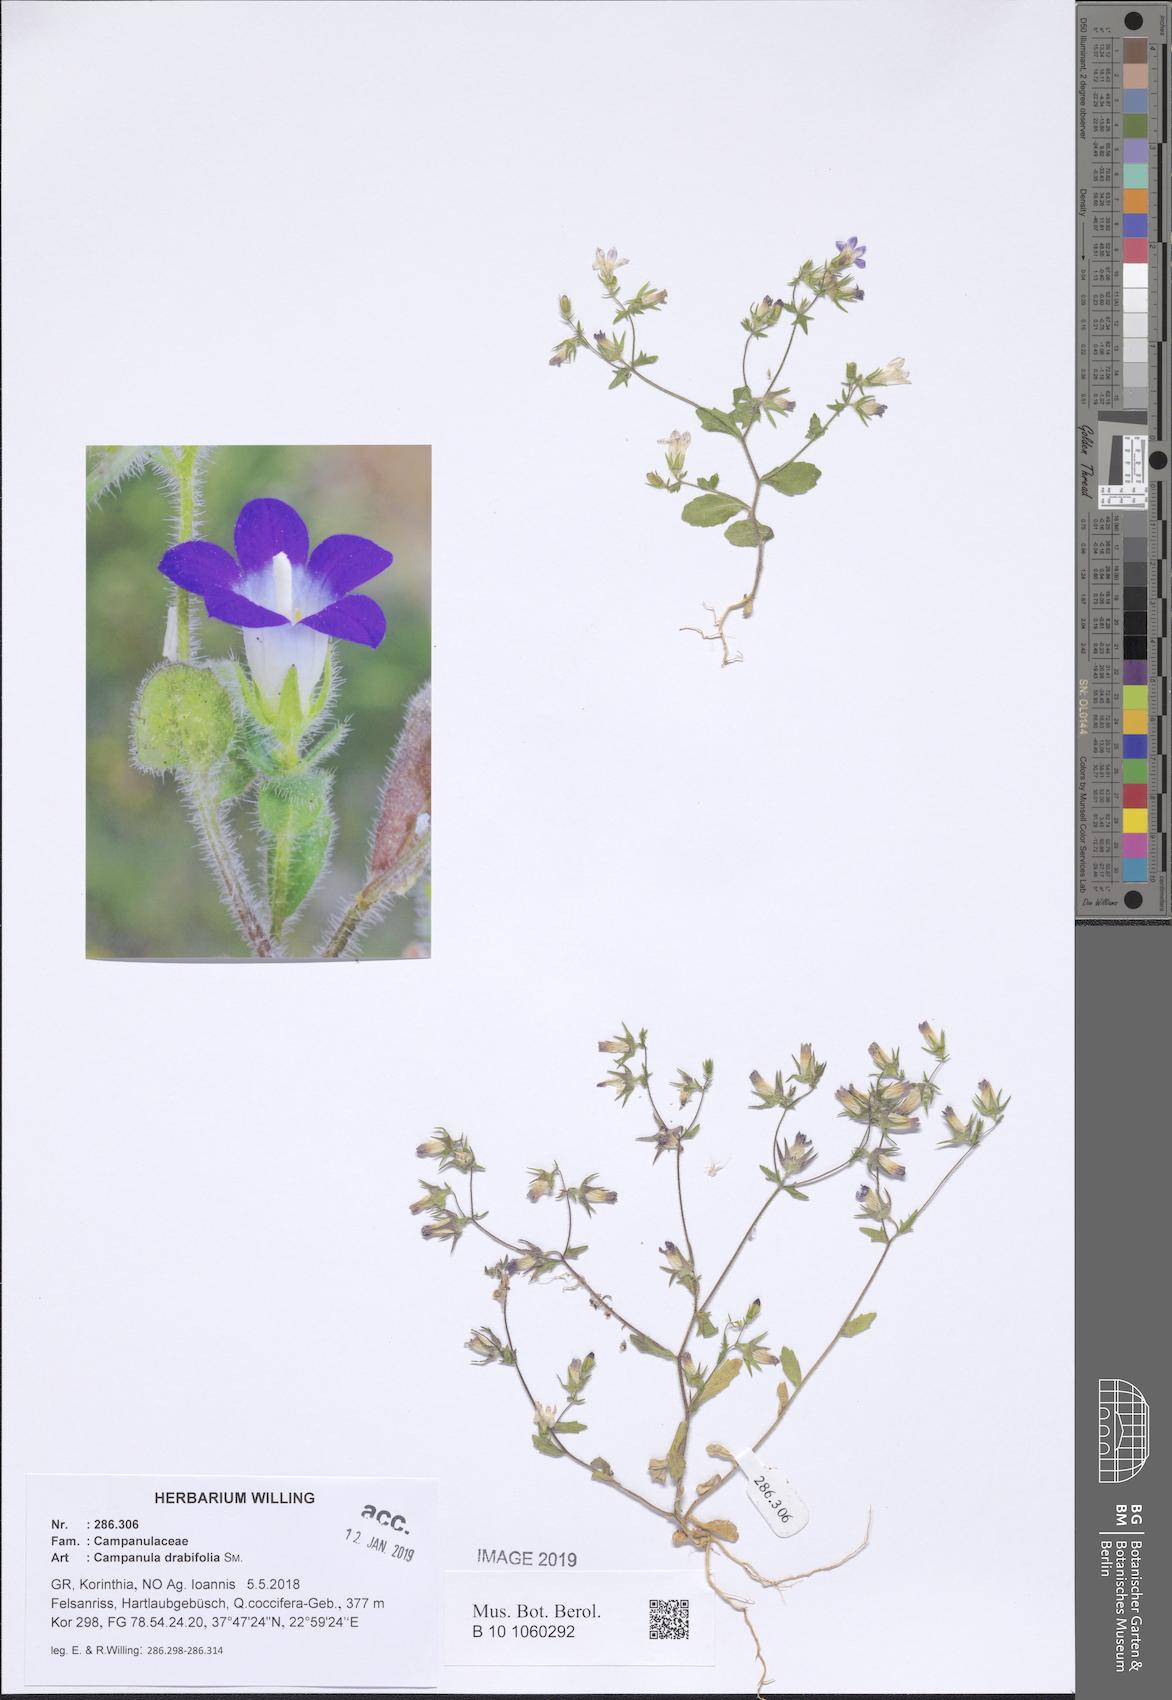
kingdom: Plantae
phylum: Tracheophyta
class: Magnoliopsida
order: Asterales
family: Campanulaceae
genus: Campanula
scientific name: Campanula drabifolia
